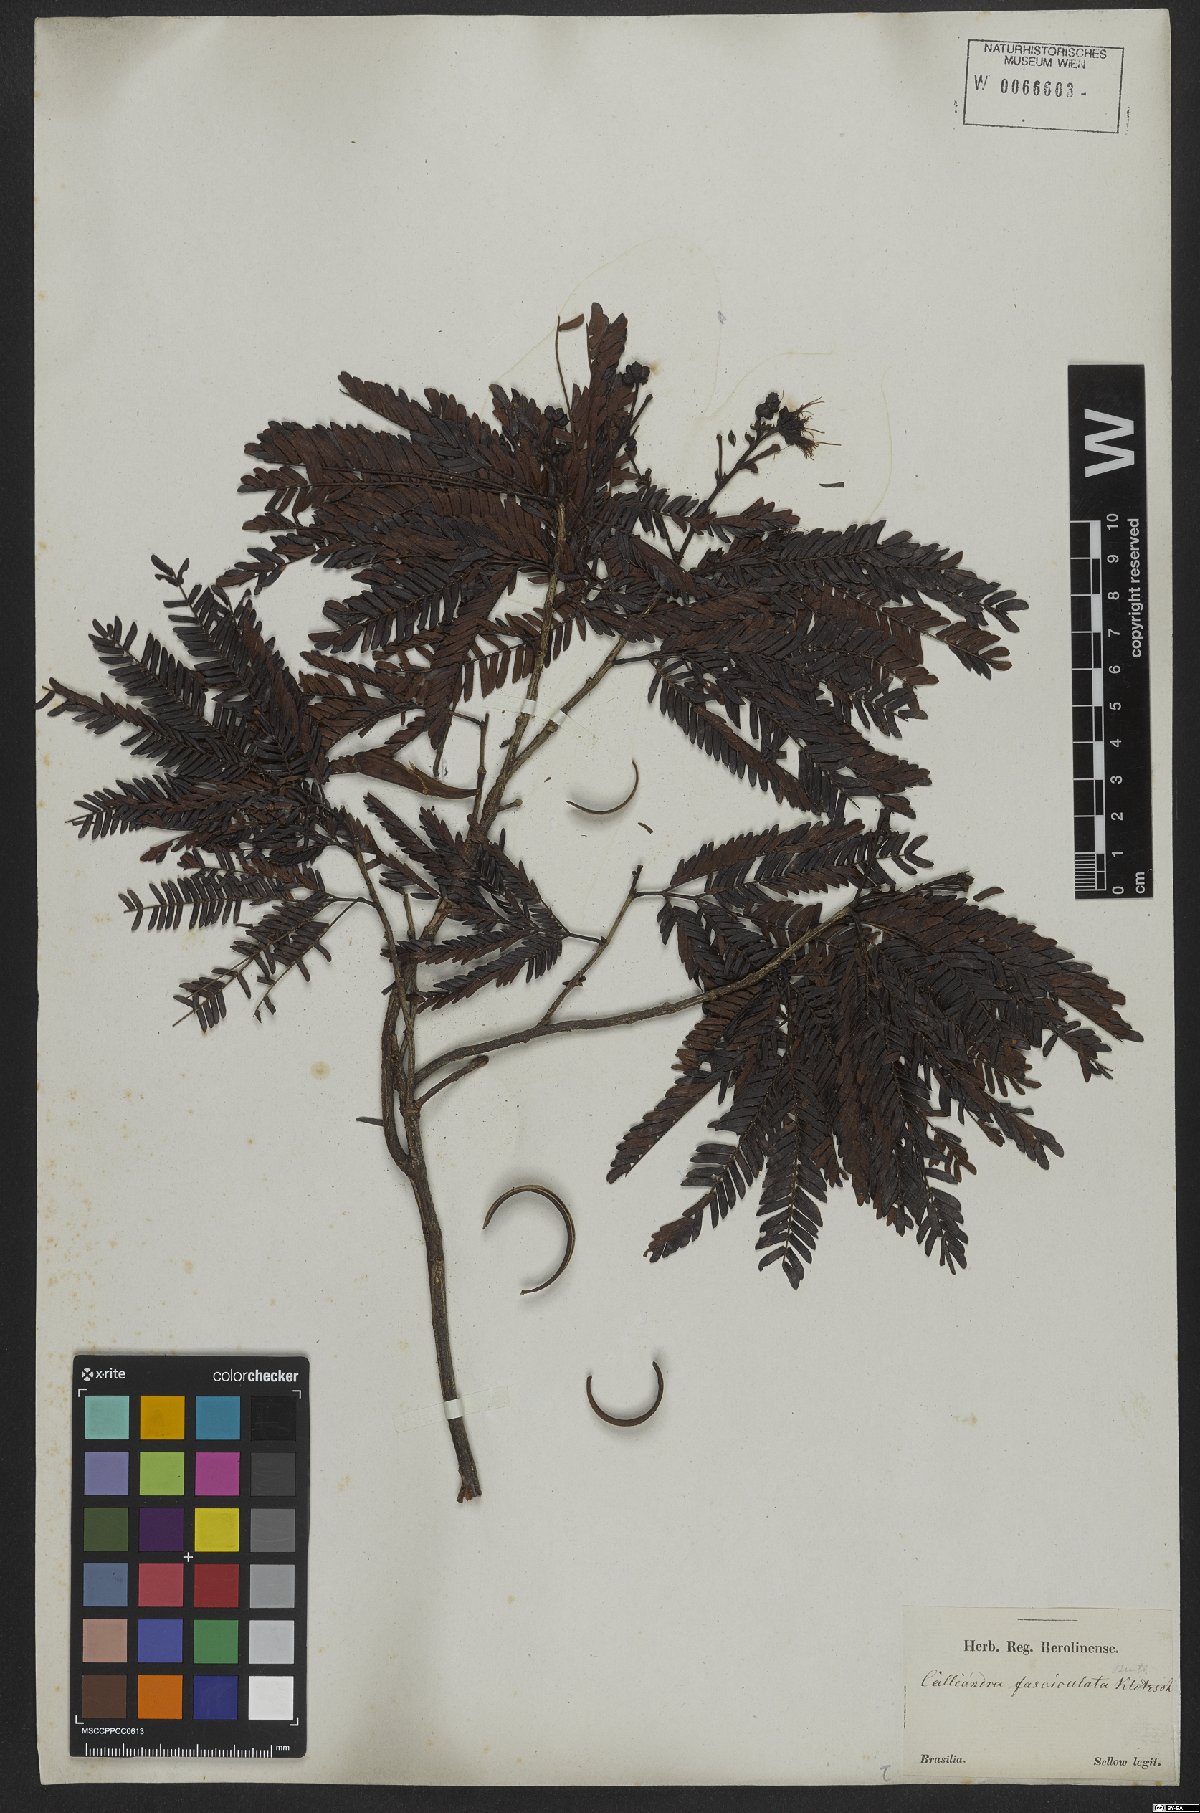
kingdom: Plantae
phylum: Tracheophyta
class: Magnoliopsida
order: Fabales
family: Fabaceae
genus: Calliandra
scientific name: Calliandra fasciculata
